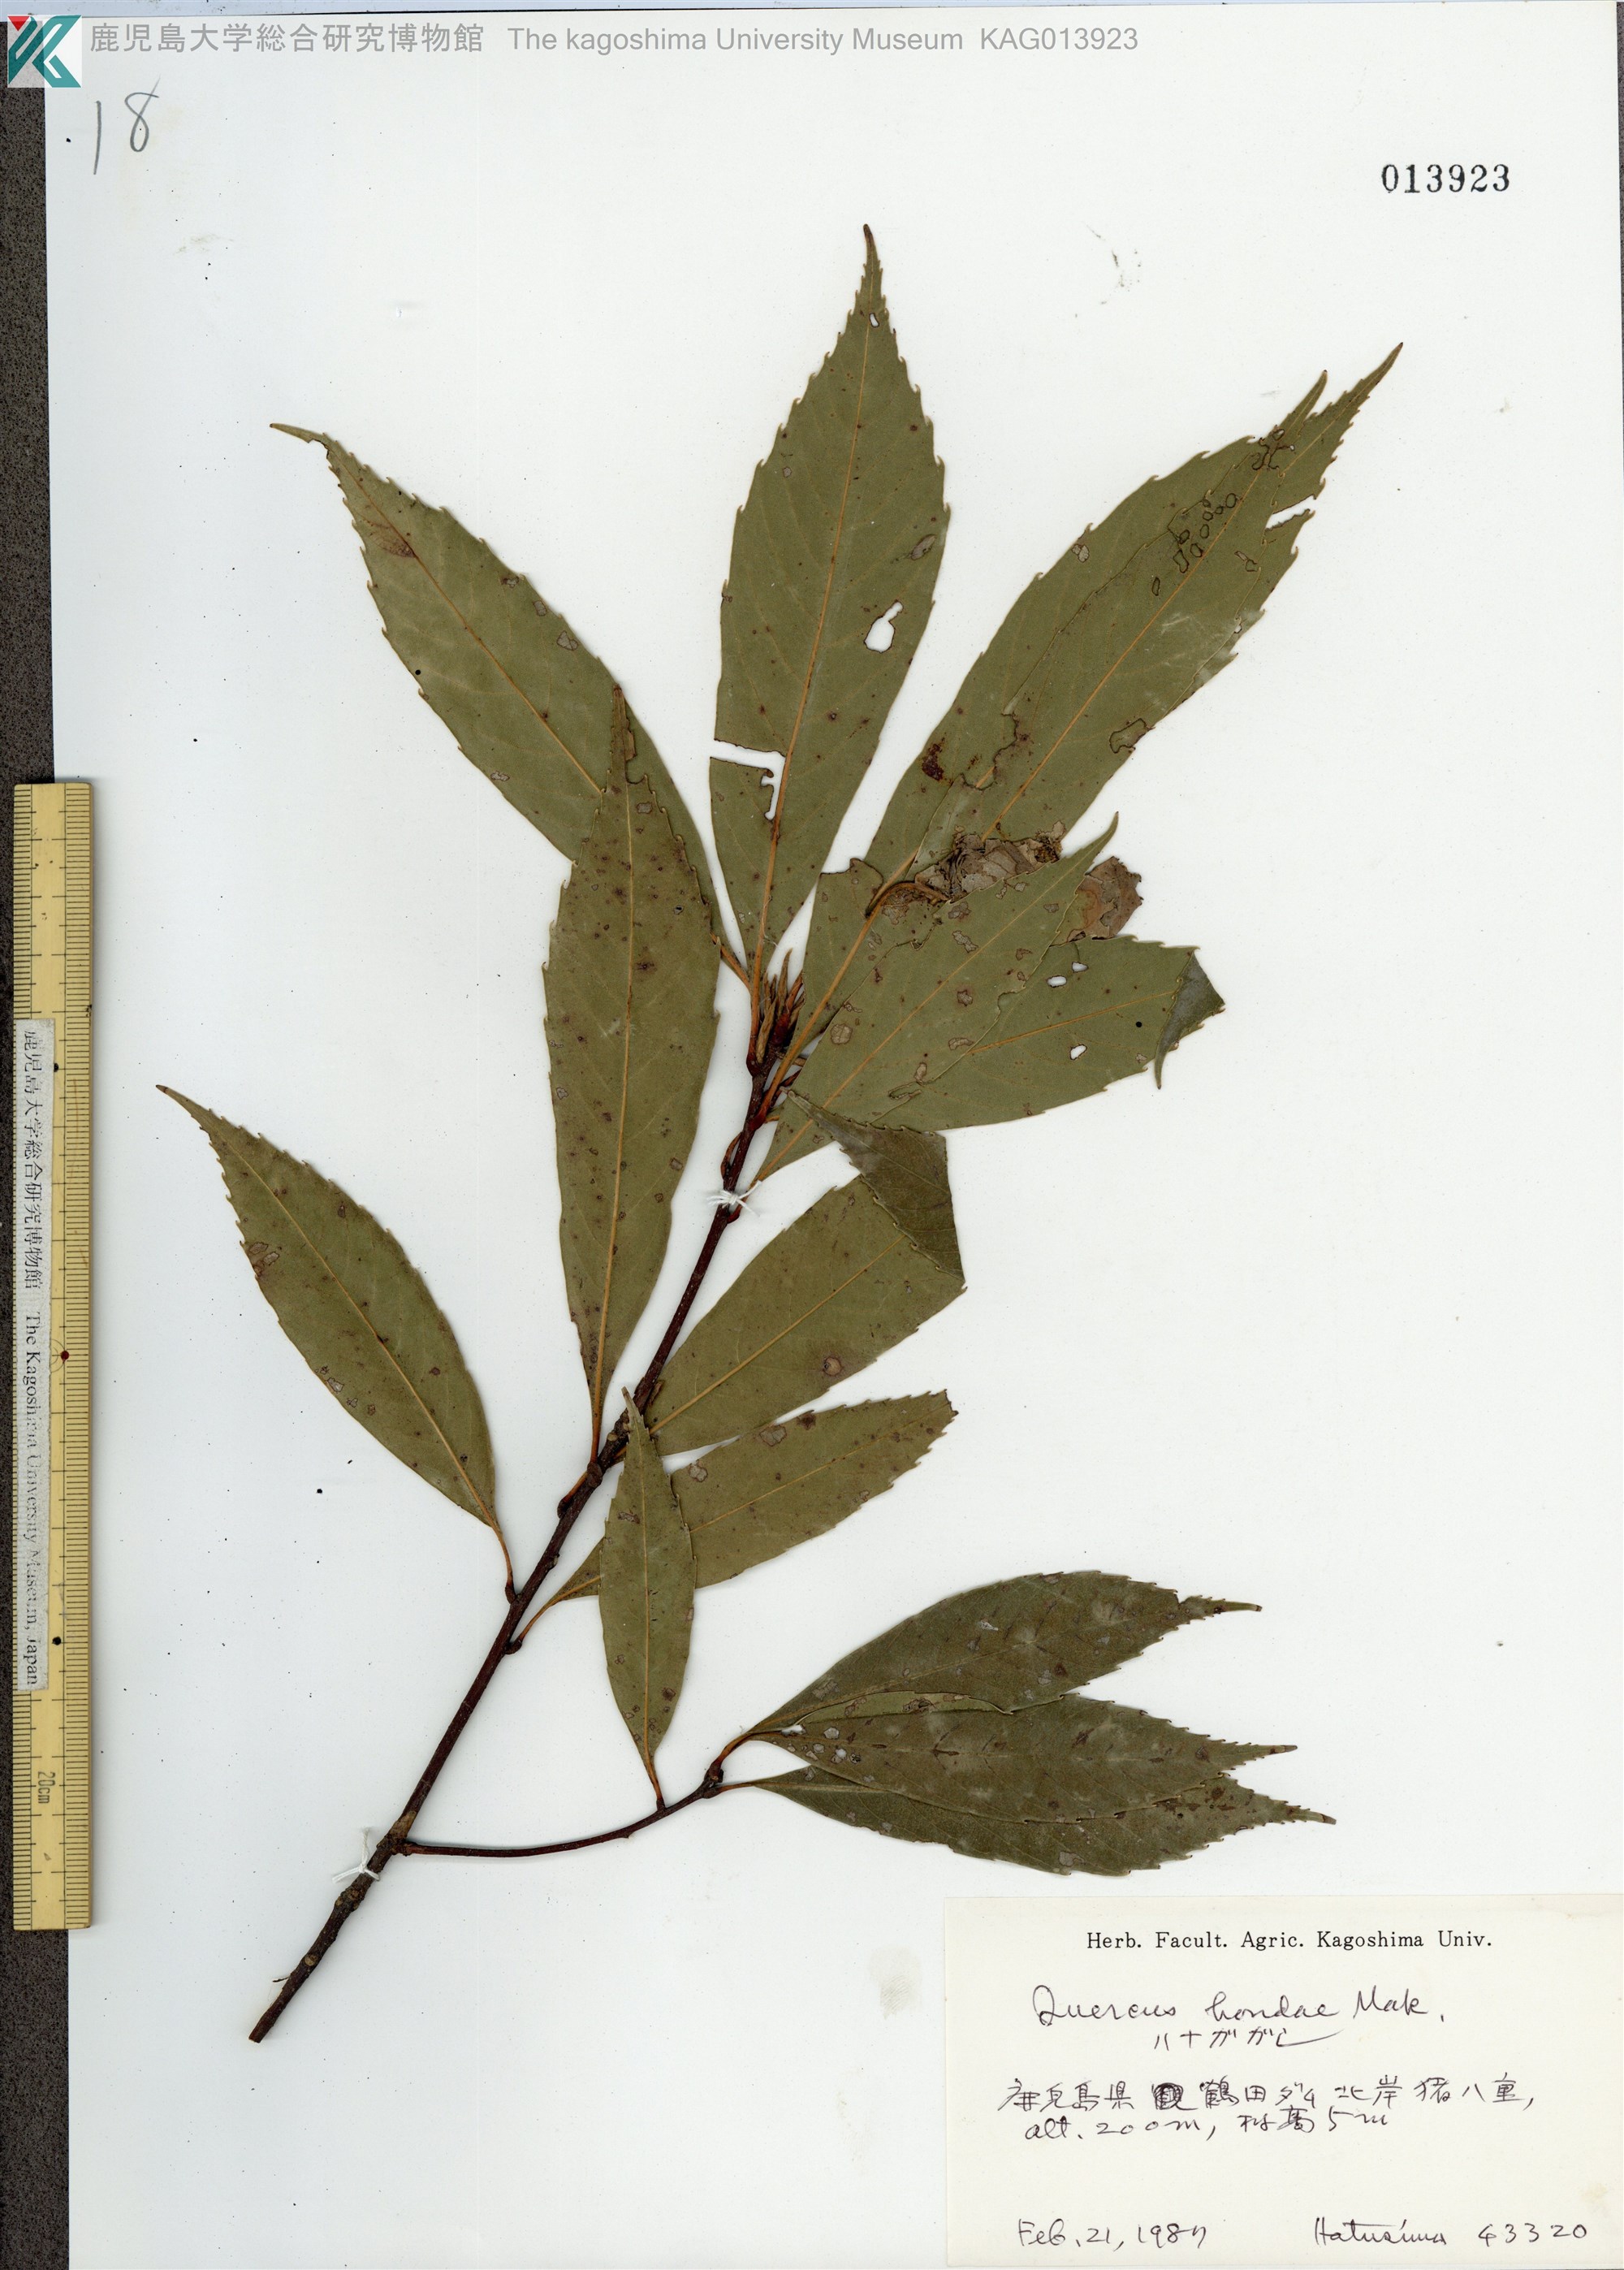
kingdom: Plantae
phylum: Tracheophyta
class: Magnoliopsida
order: Fagales
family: Fagaceae
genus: Quercus
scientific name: Quercus hondae
